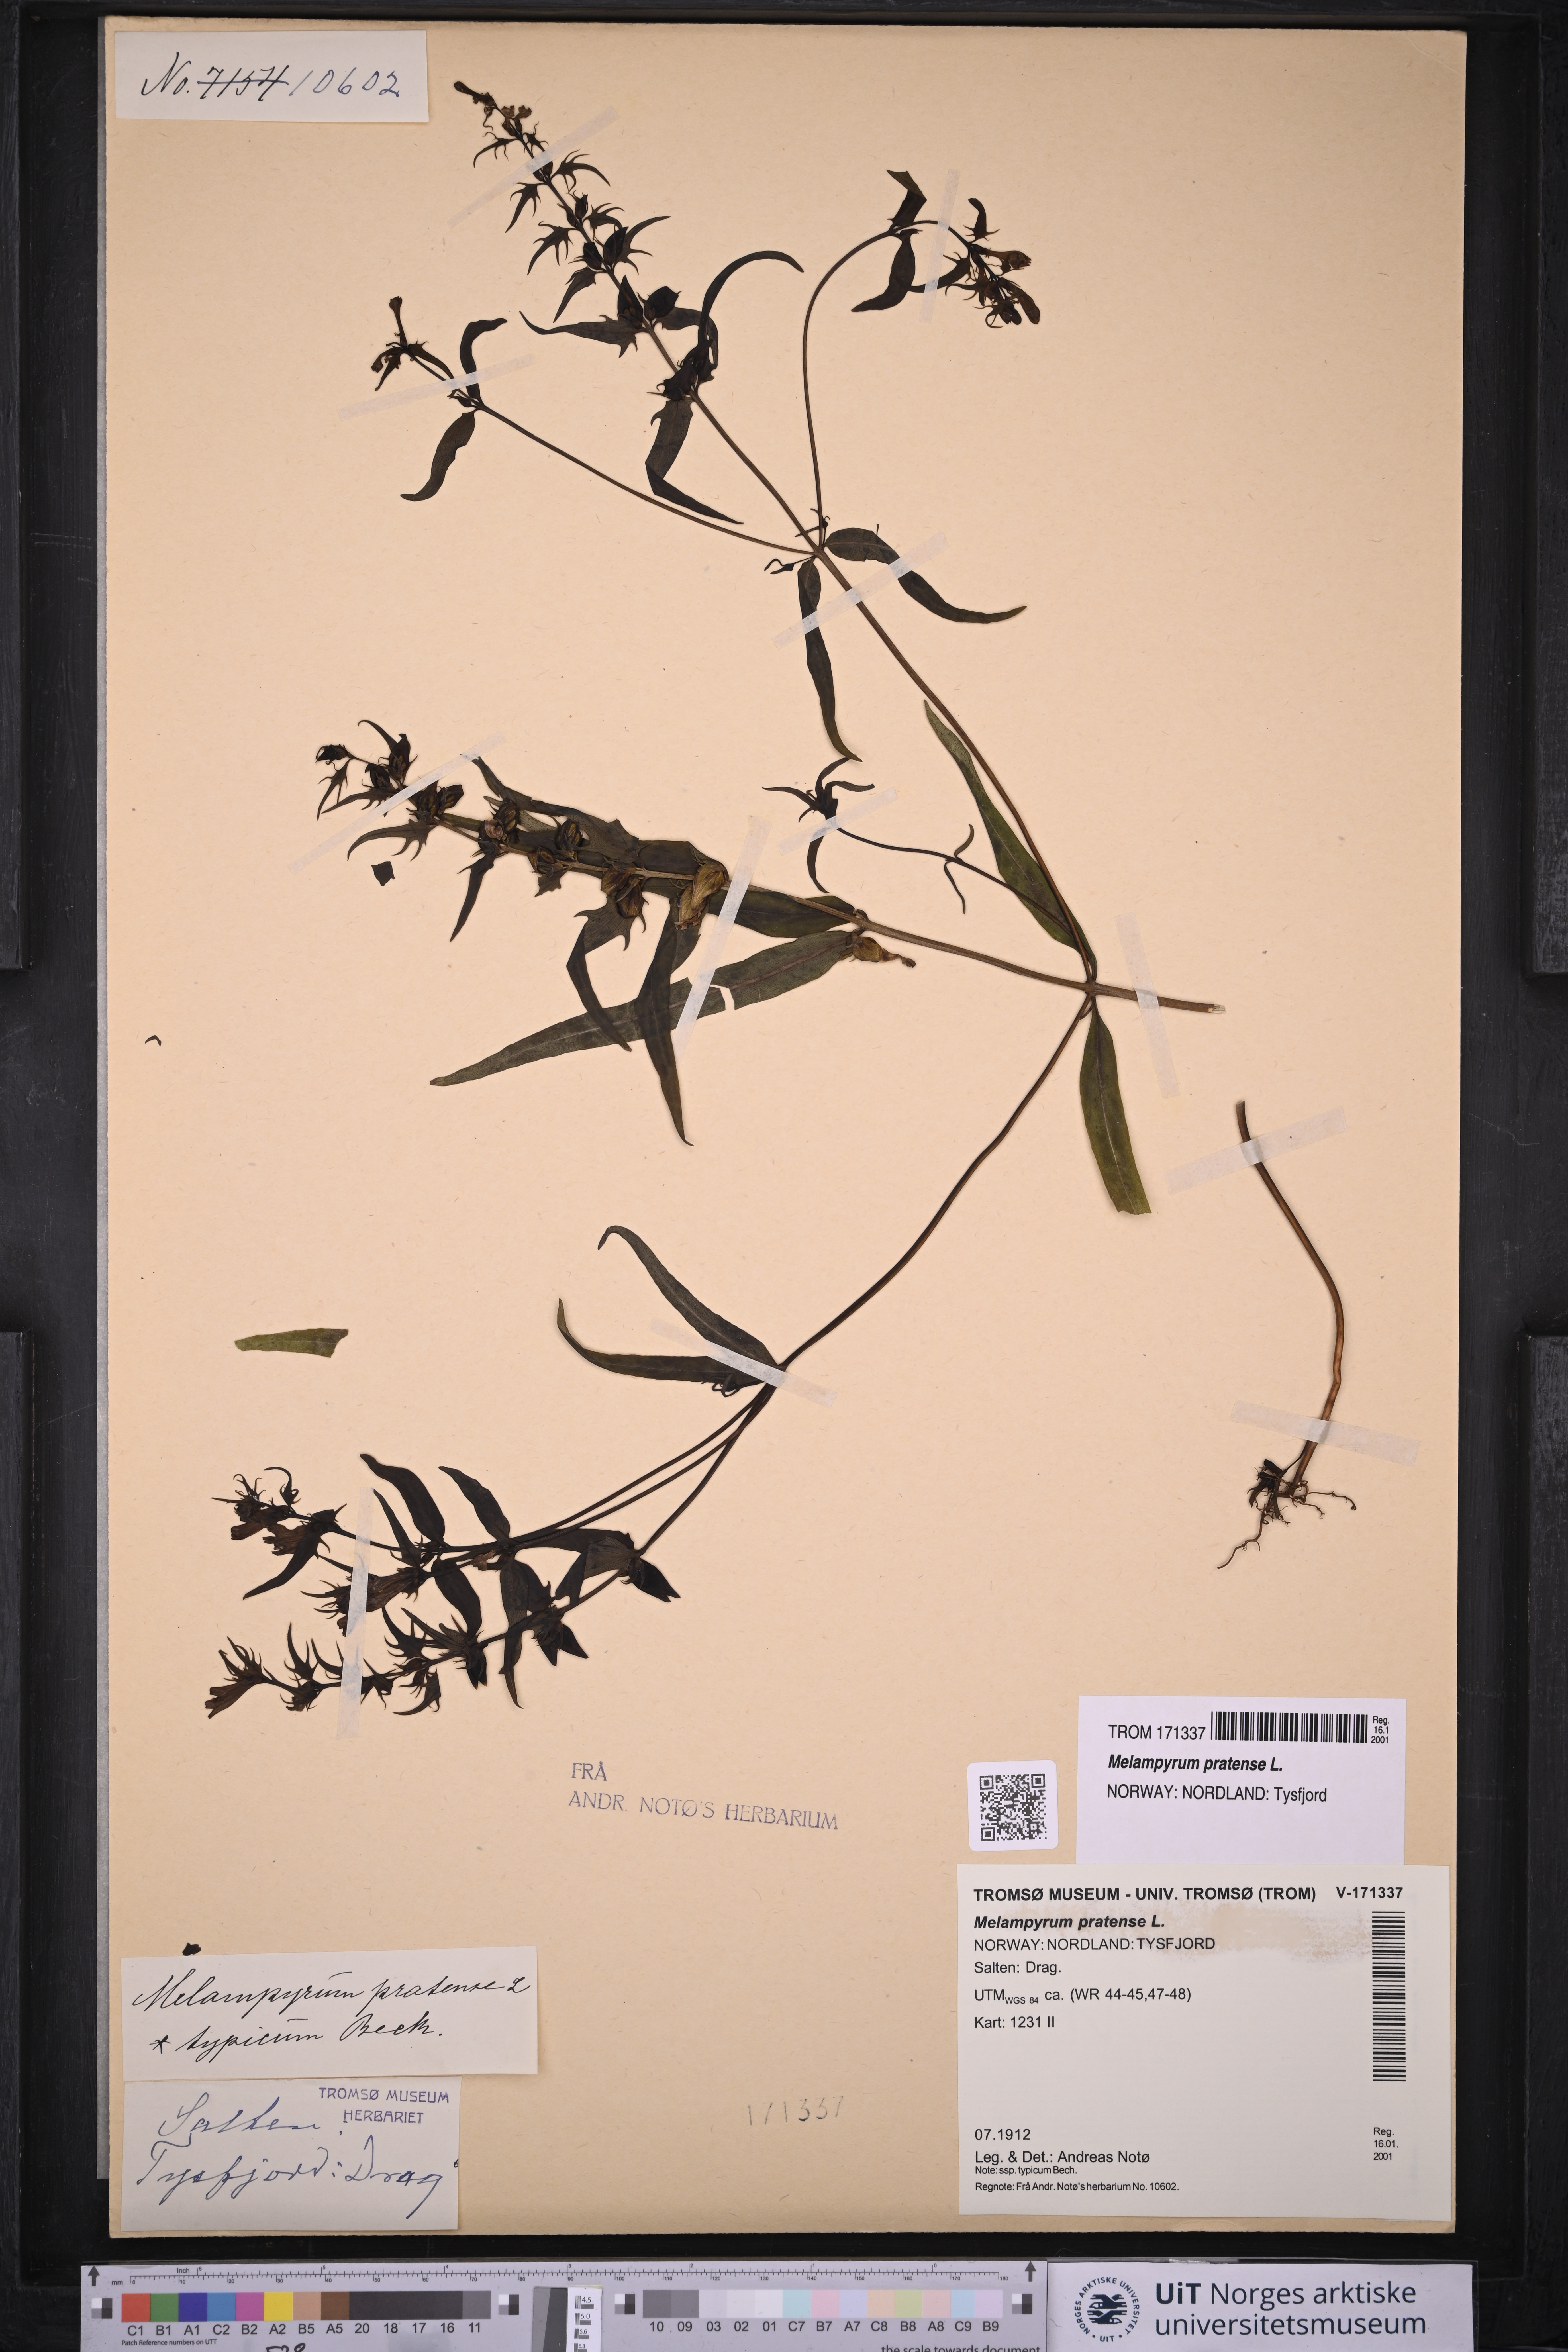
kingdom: Plantae
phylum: Tracheophyta
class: Magnoliopsida
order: Lamiales
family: Orobanchaceae
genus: Melampyrum
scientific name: Melampyrum pratense
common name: Common cow-wheat
